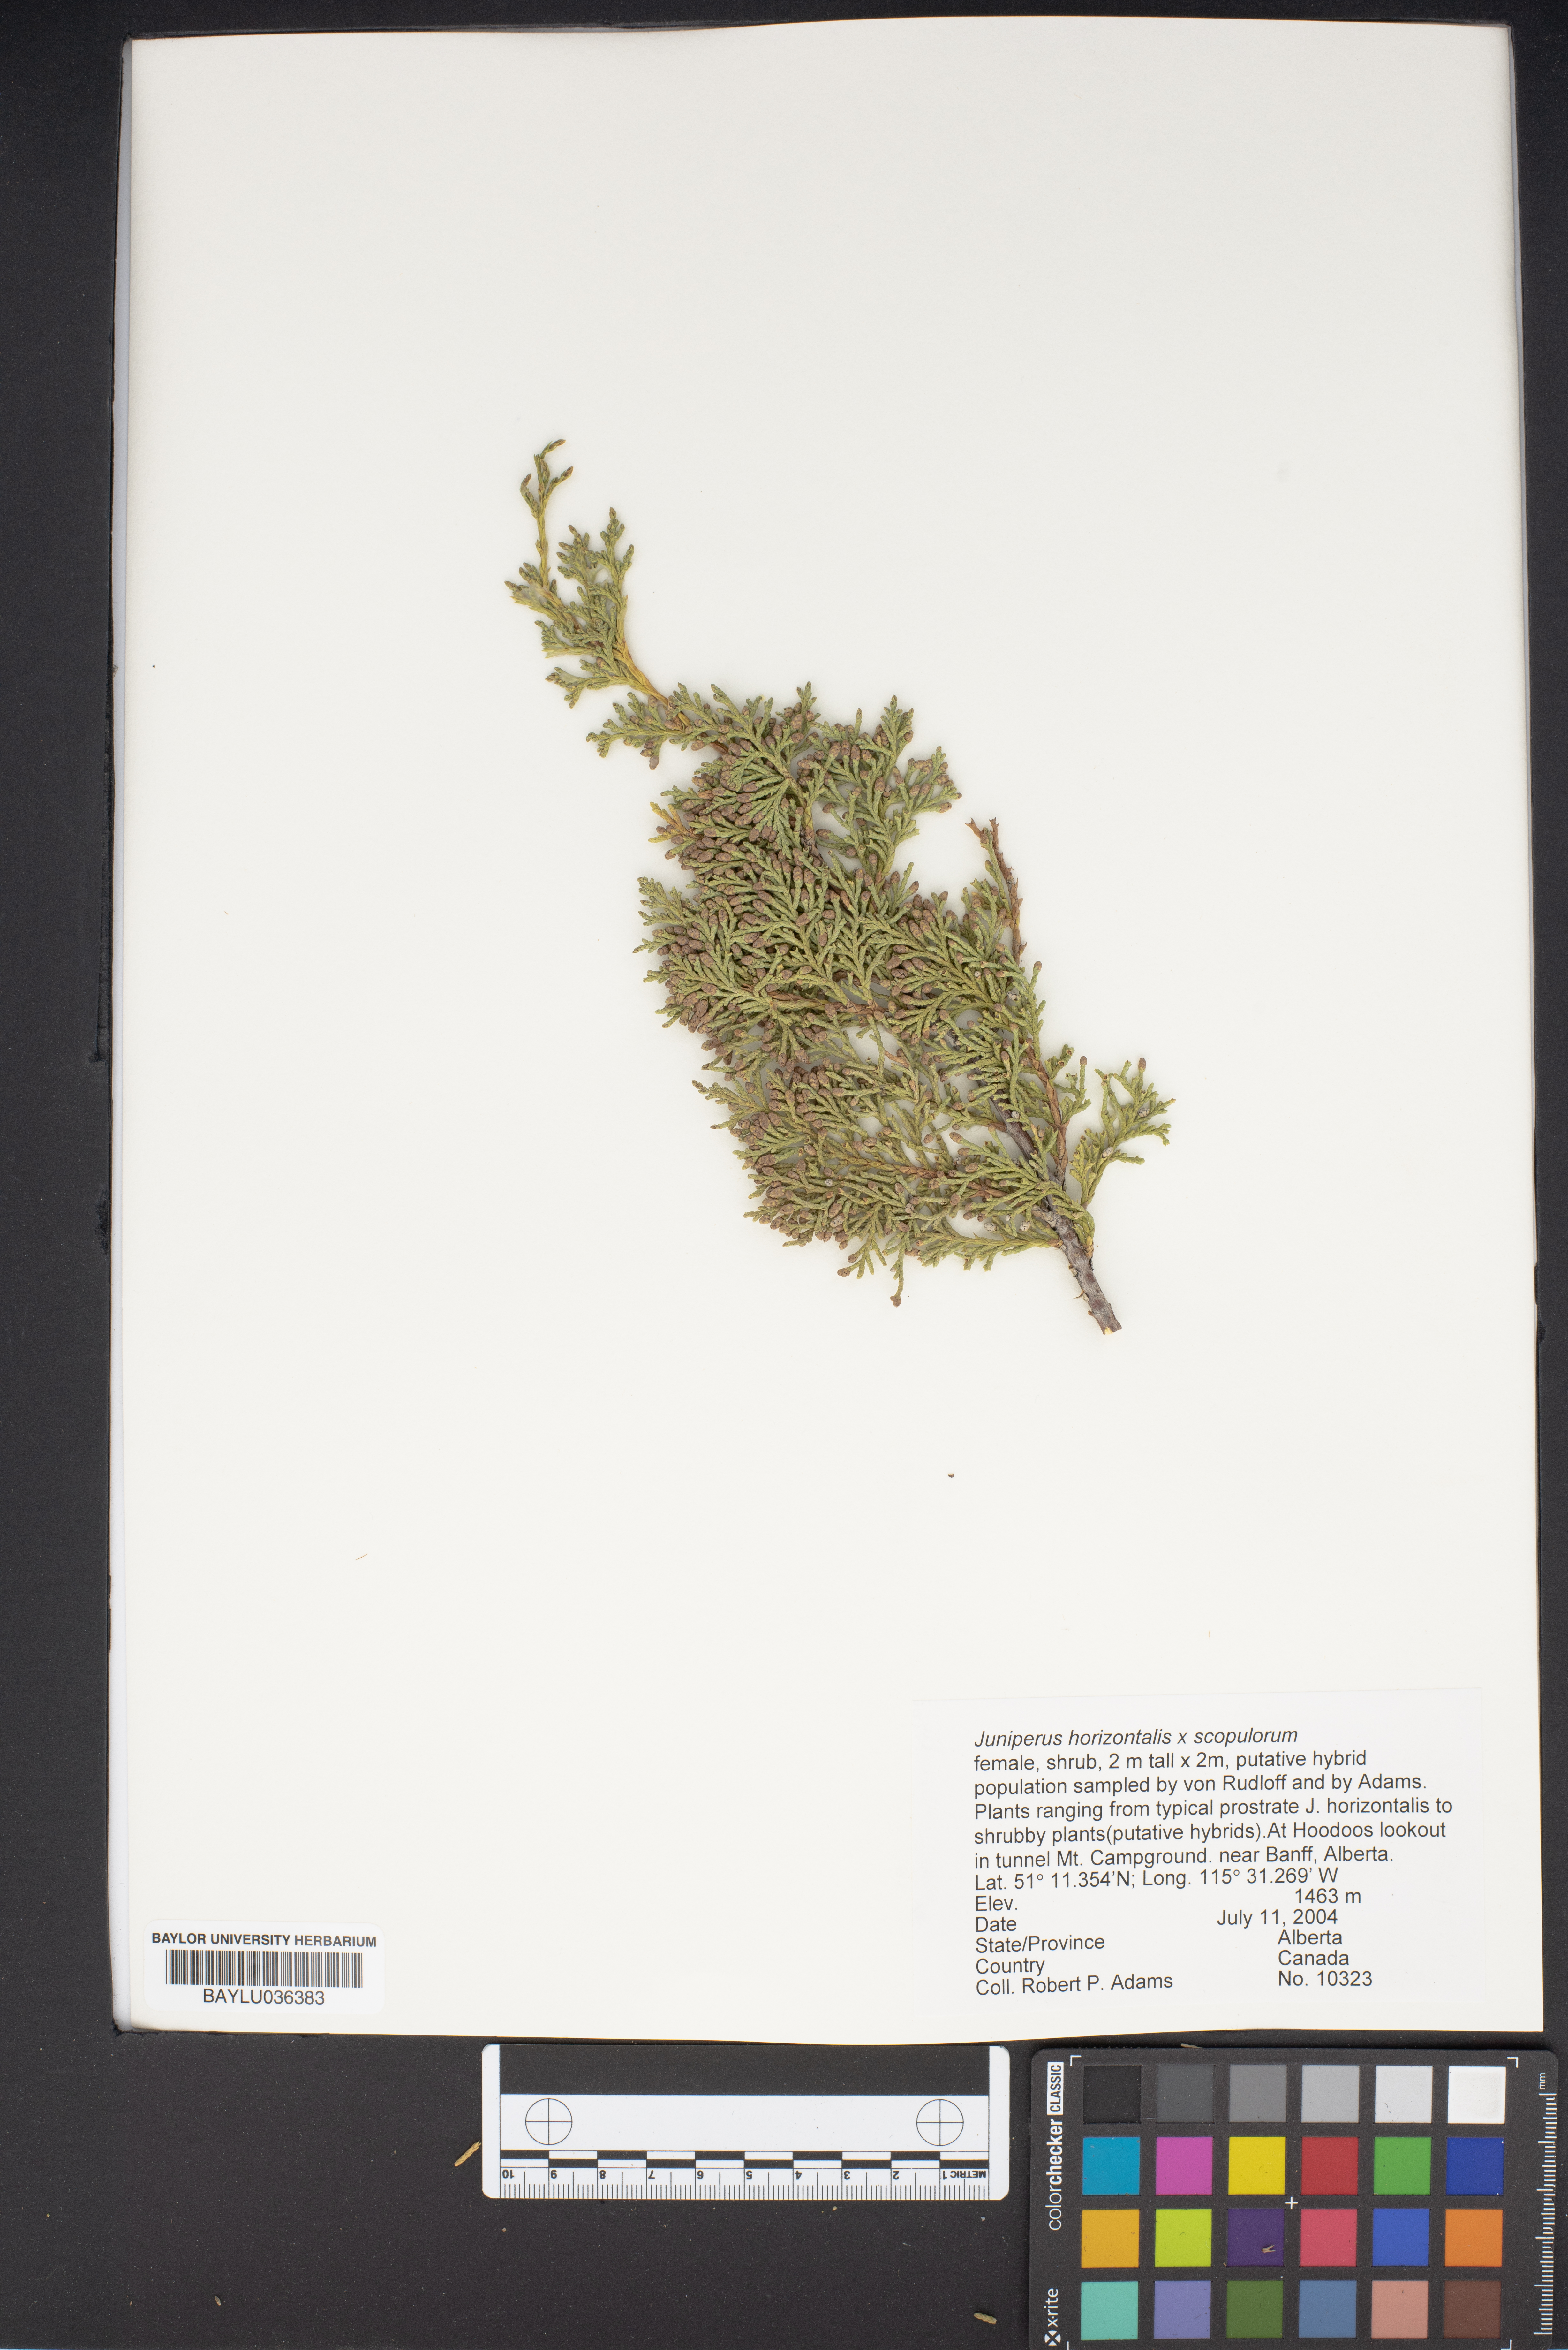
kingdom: Plantae
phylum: Tracheophyta
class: Pinopsida
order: Pinales
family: Cupressaceae
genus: Juniperus
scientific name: Juniperus horizontalis
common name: Creeping juniper
